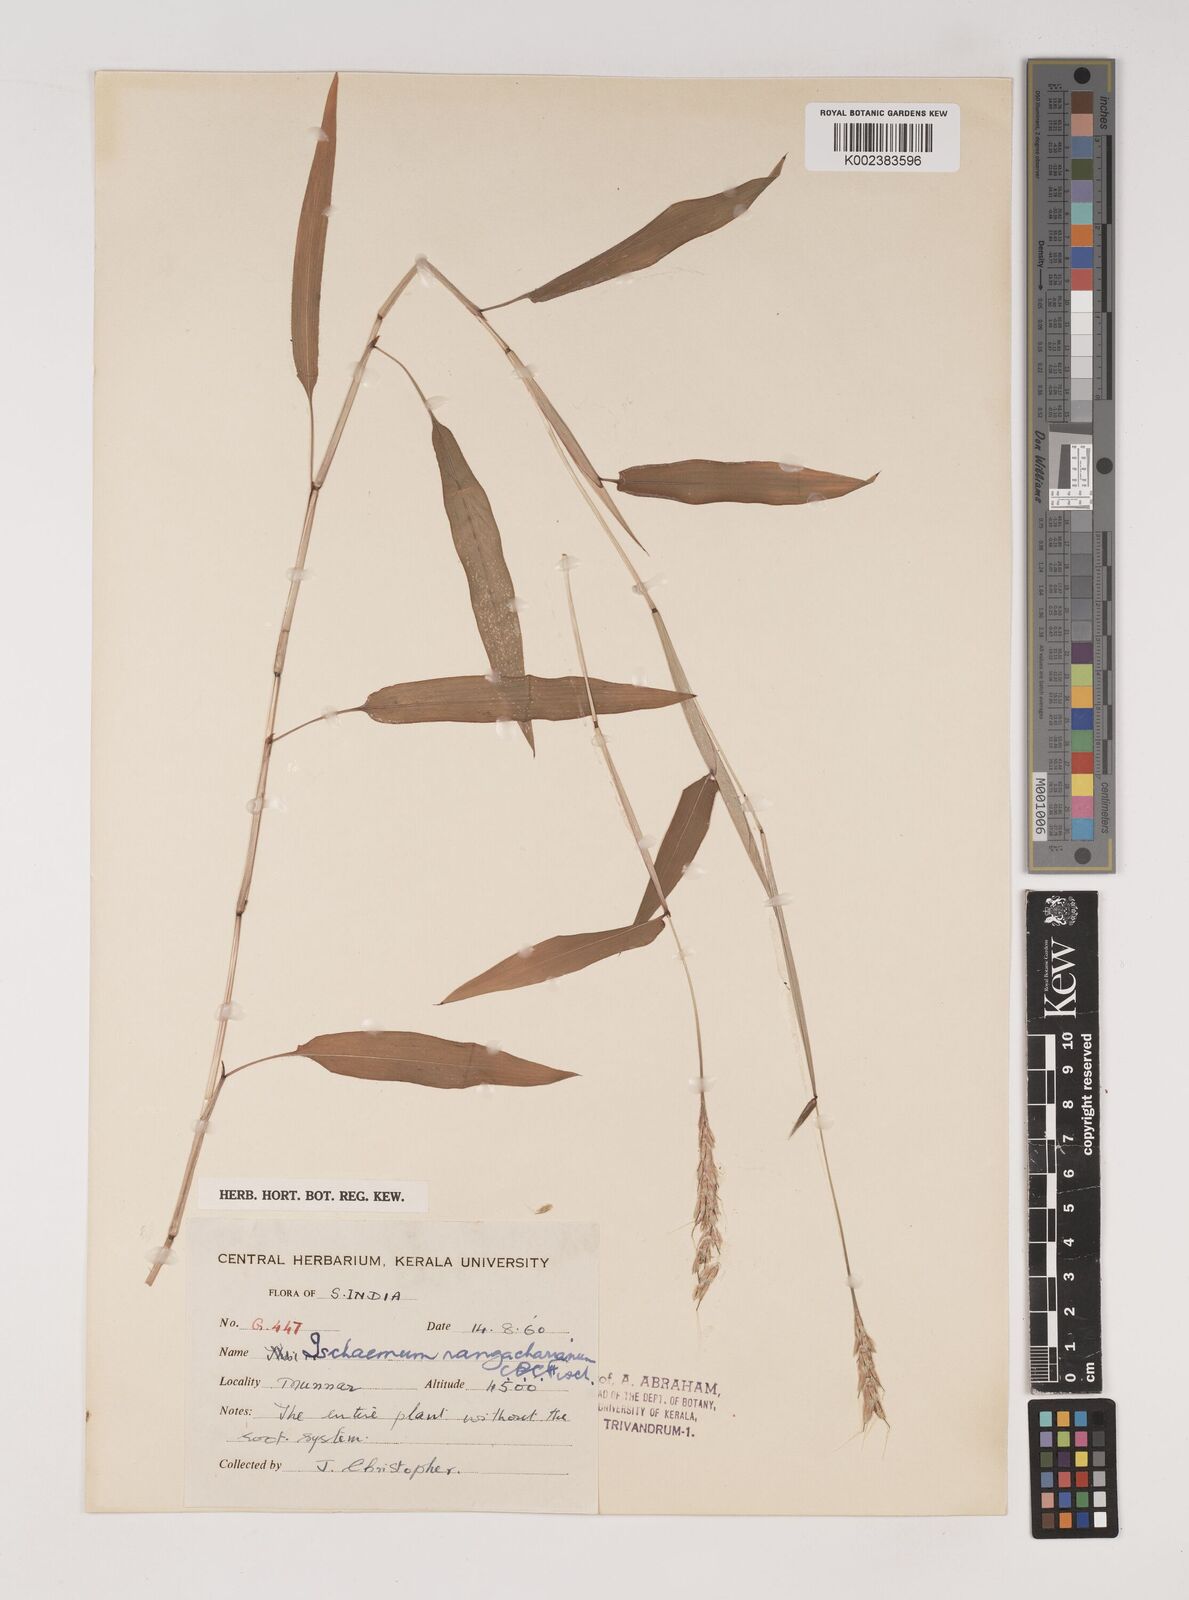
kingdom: Plantae
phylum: Tracheophyta
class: Liliopsida
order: Poales
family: Poaceae
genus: Ischaemum
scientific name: Ischaemum rangacharianum
